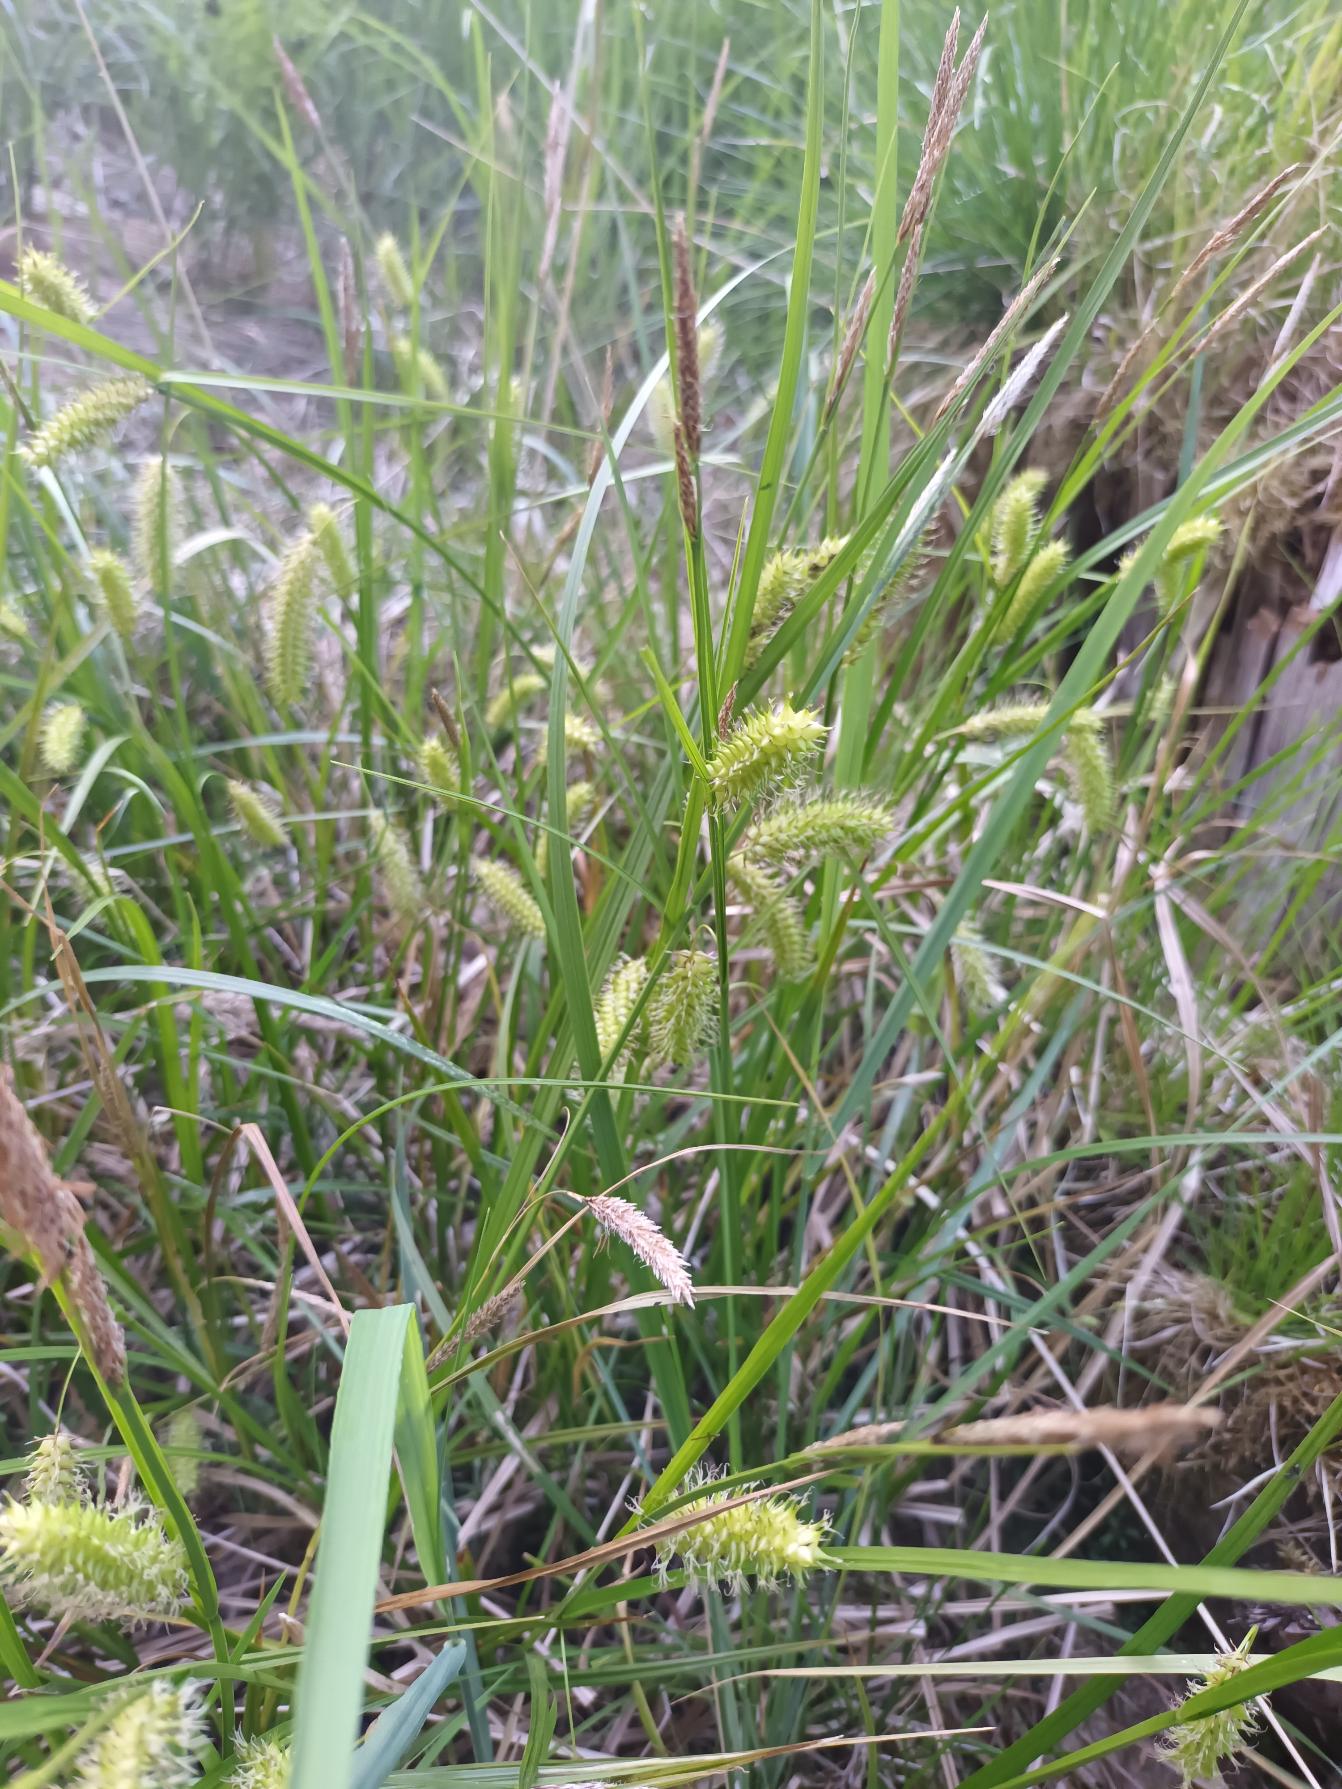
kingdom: Plantae
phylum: Tracheophyta
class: Liliopsida
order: Poales
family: Cyperaceae
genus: Carex
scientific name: Carex vesicaria
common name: Blære-star
